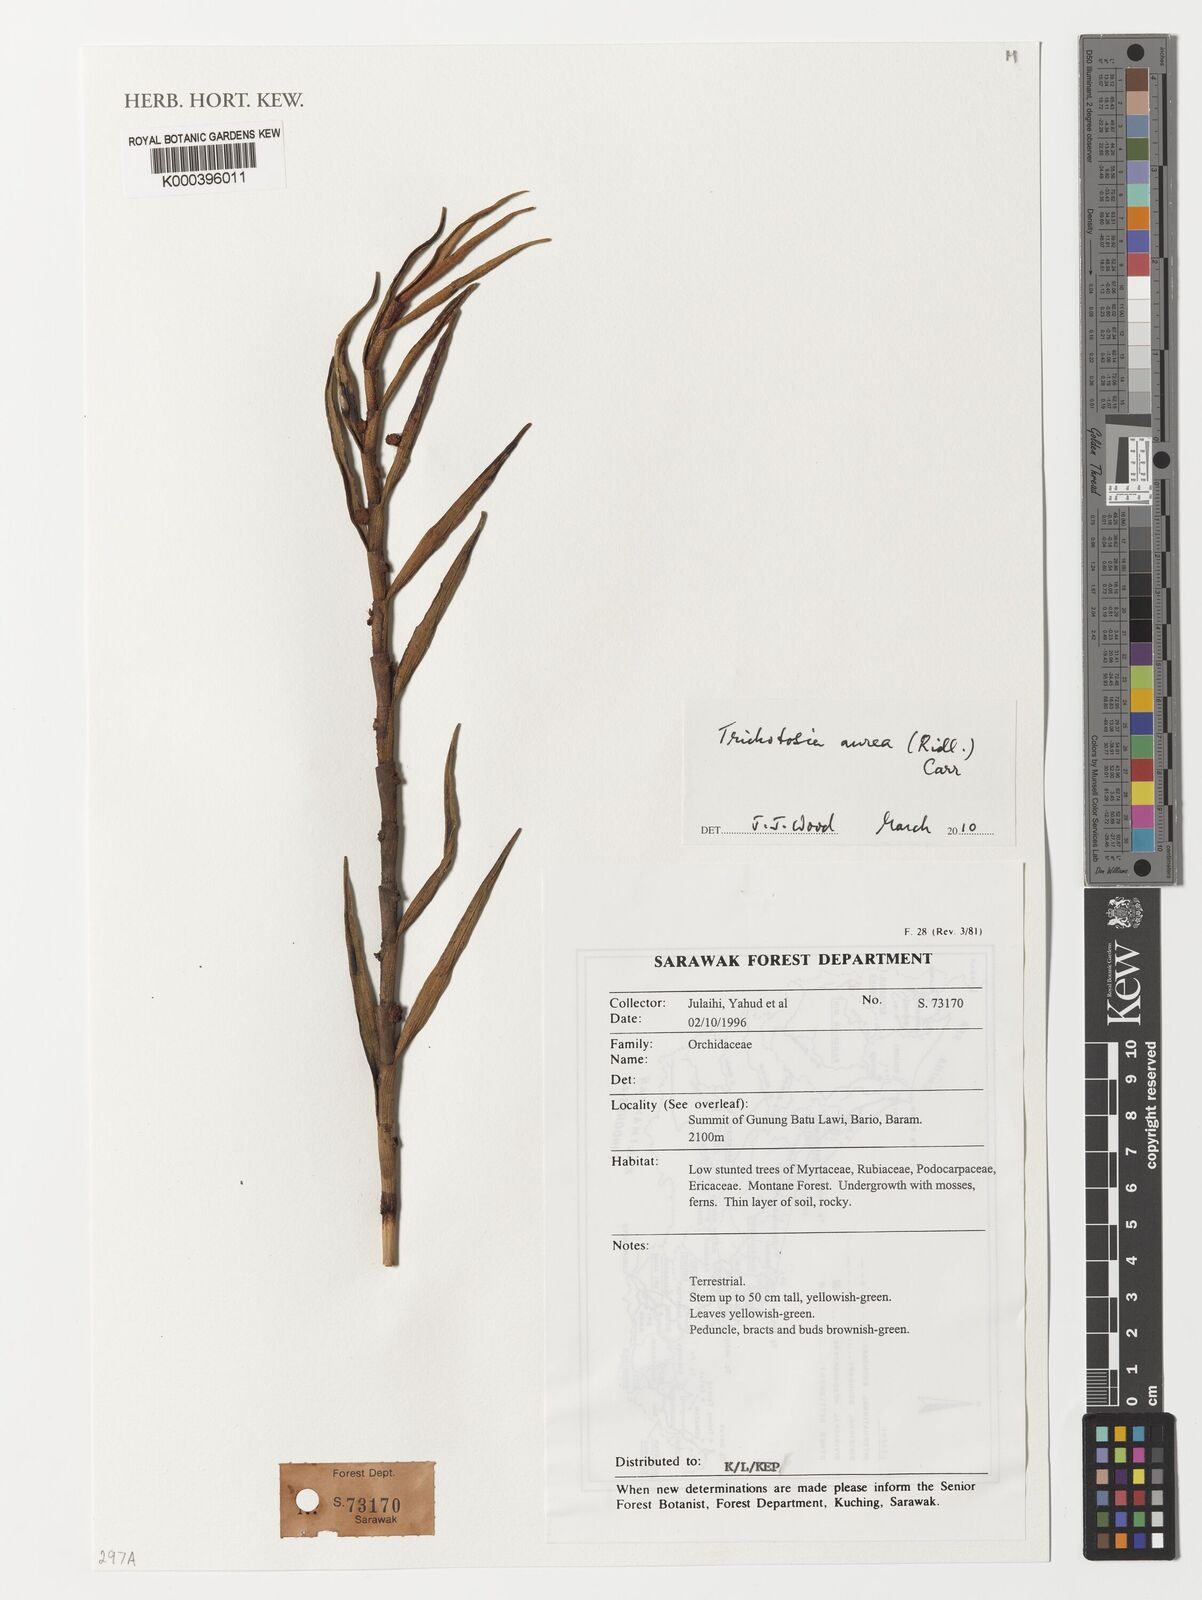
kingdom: Plantae
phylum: Tracheophyta
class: Liliopsida
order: Asparagales
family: Orchidaceae
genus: Trichotosia
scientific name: Trichotosia aurea
